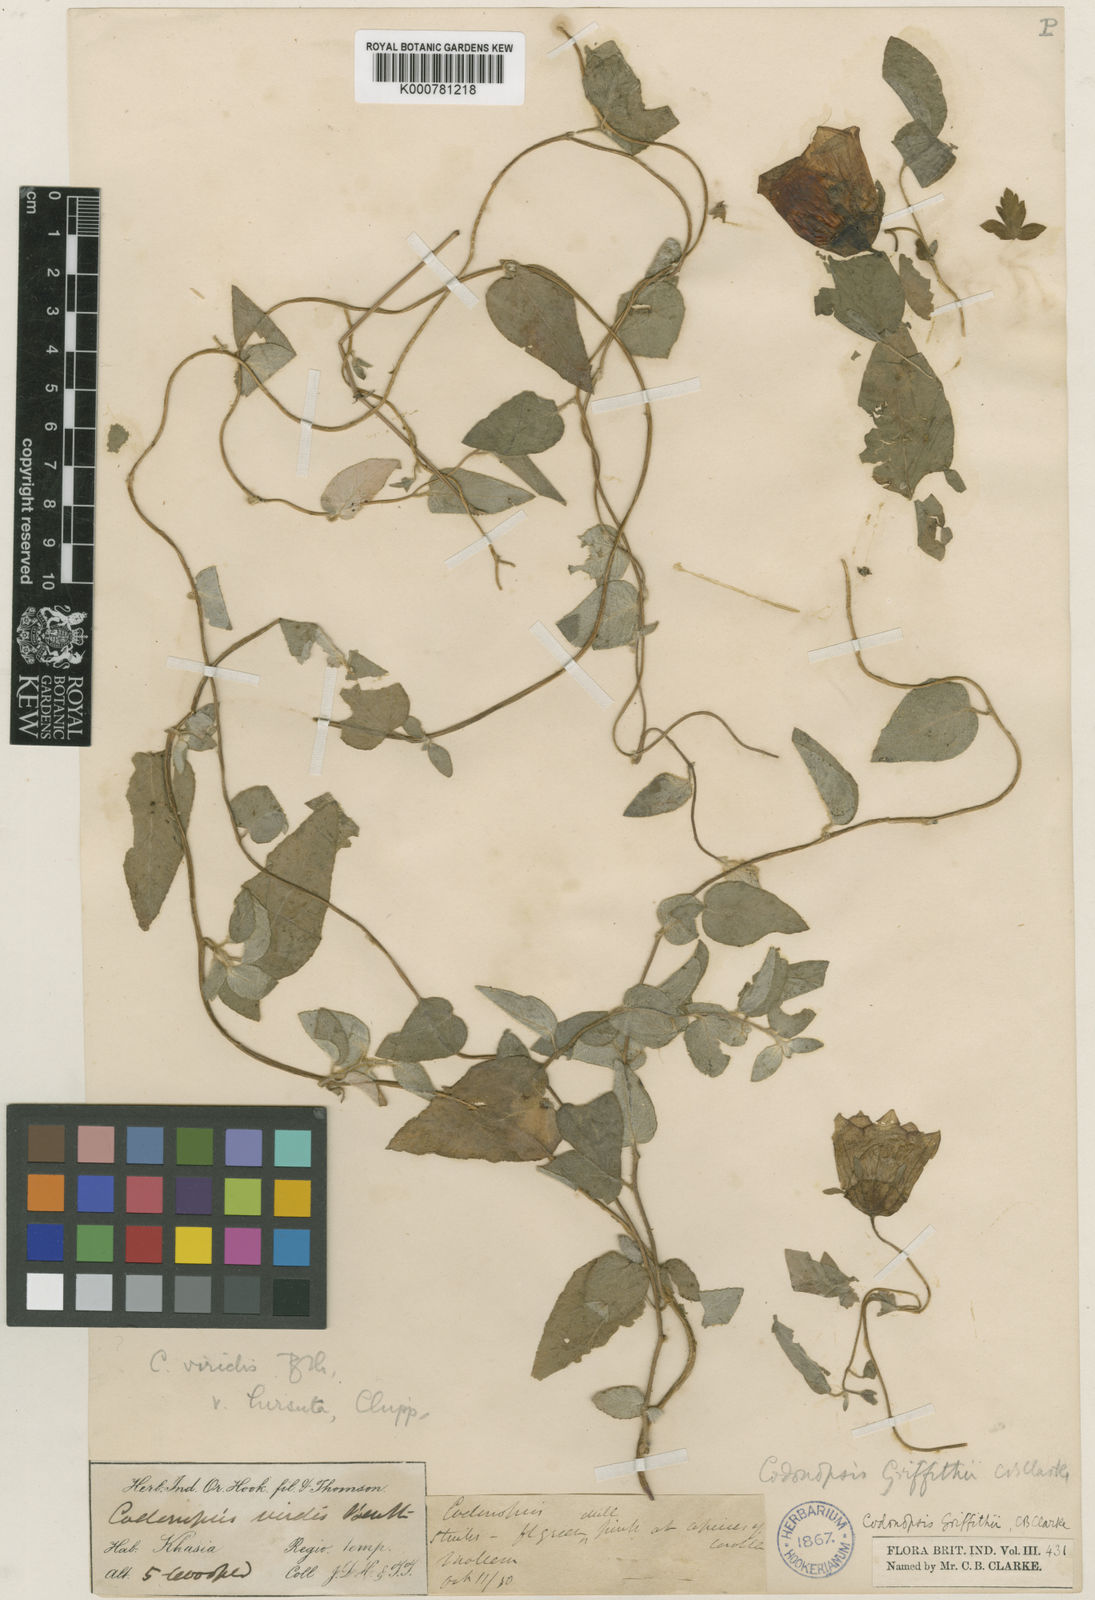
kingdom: Plantae
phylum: Tracheophyta
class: Magnoliopsida
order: Asterales
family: Campanulaceae
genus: Codonopsis
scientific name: Codonopsis viridis
